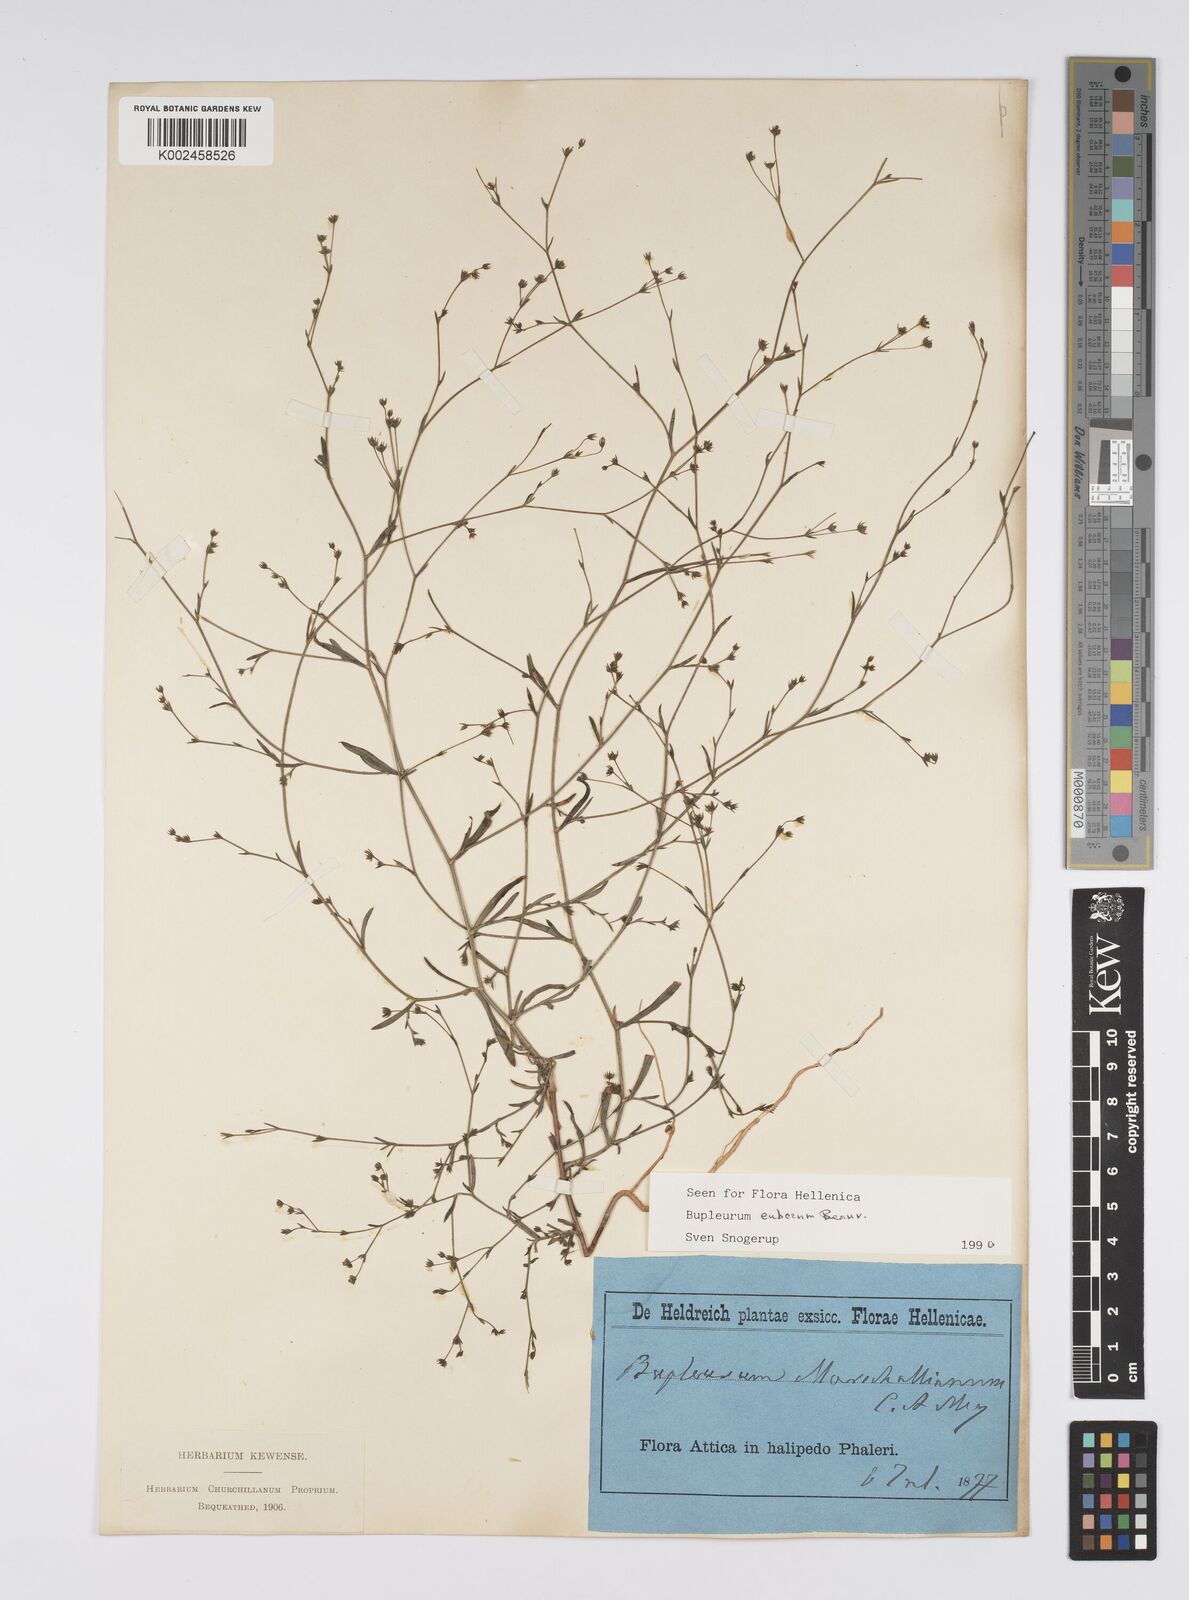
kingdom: Plantae
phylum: Tracheophyta
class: Magnoliopsida
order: Apiales
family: Apiaceae
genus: Bupleurum
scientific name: Bupleurum tenuissimum
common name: Slender hare's-ear
